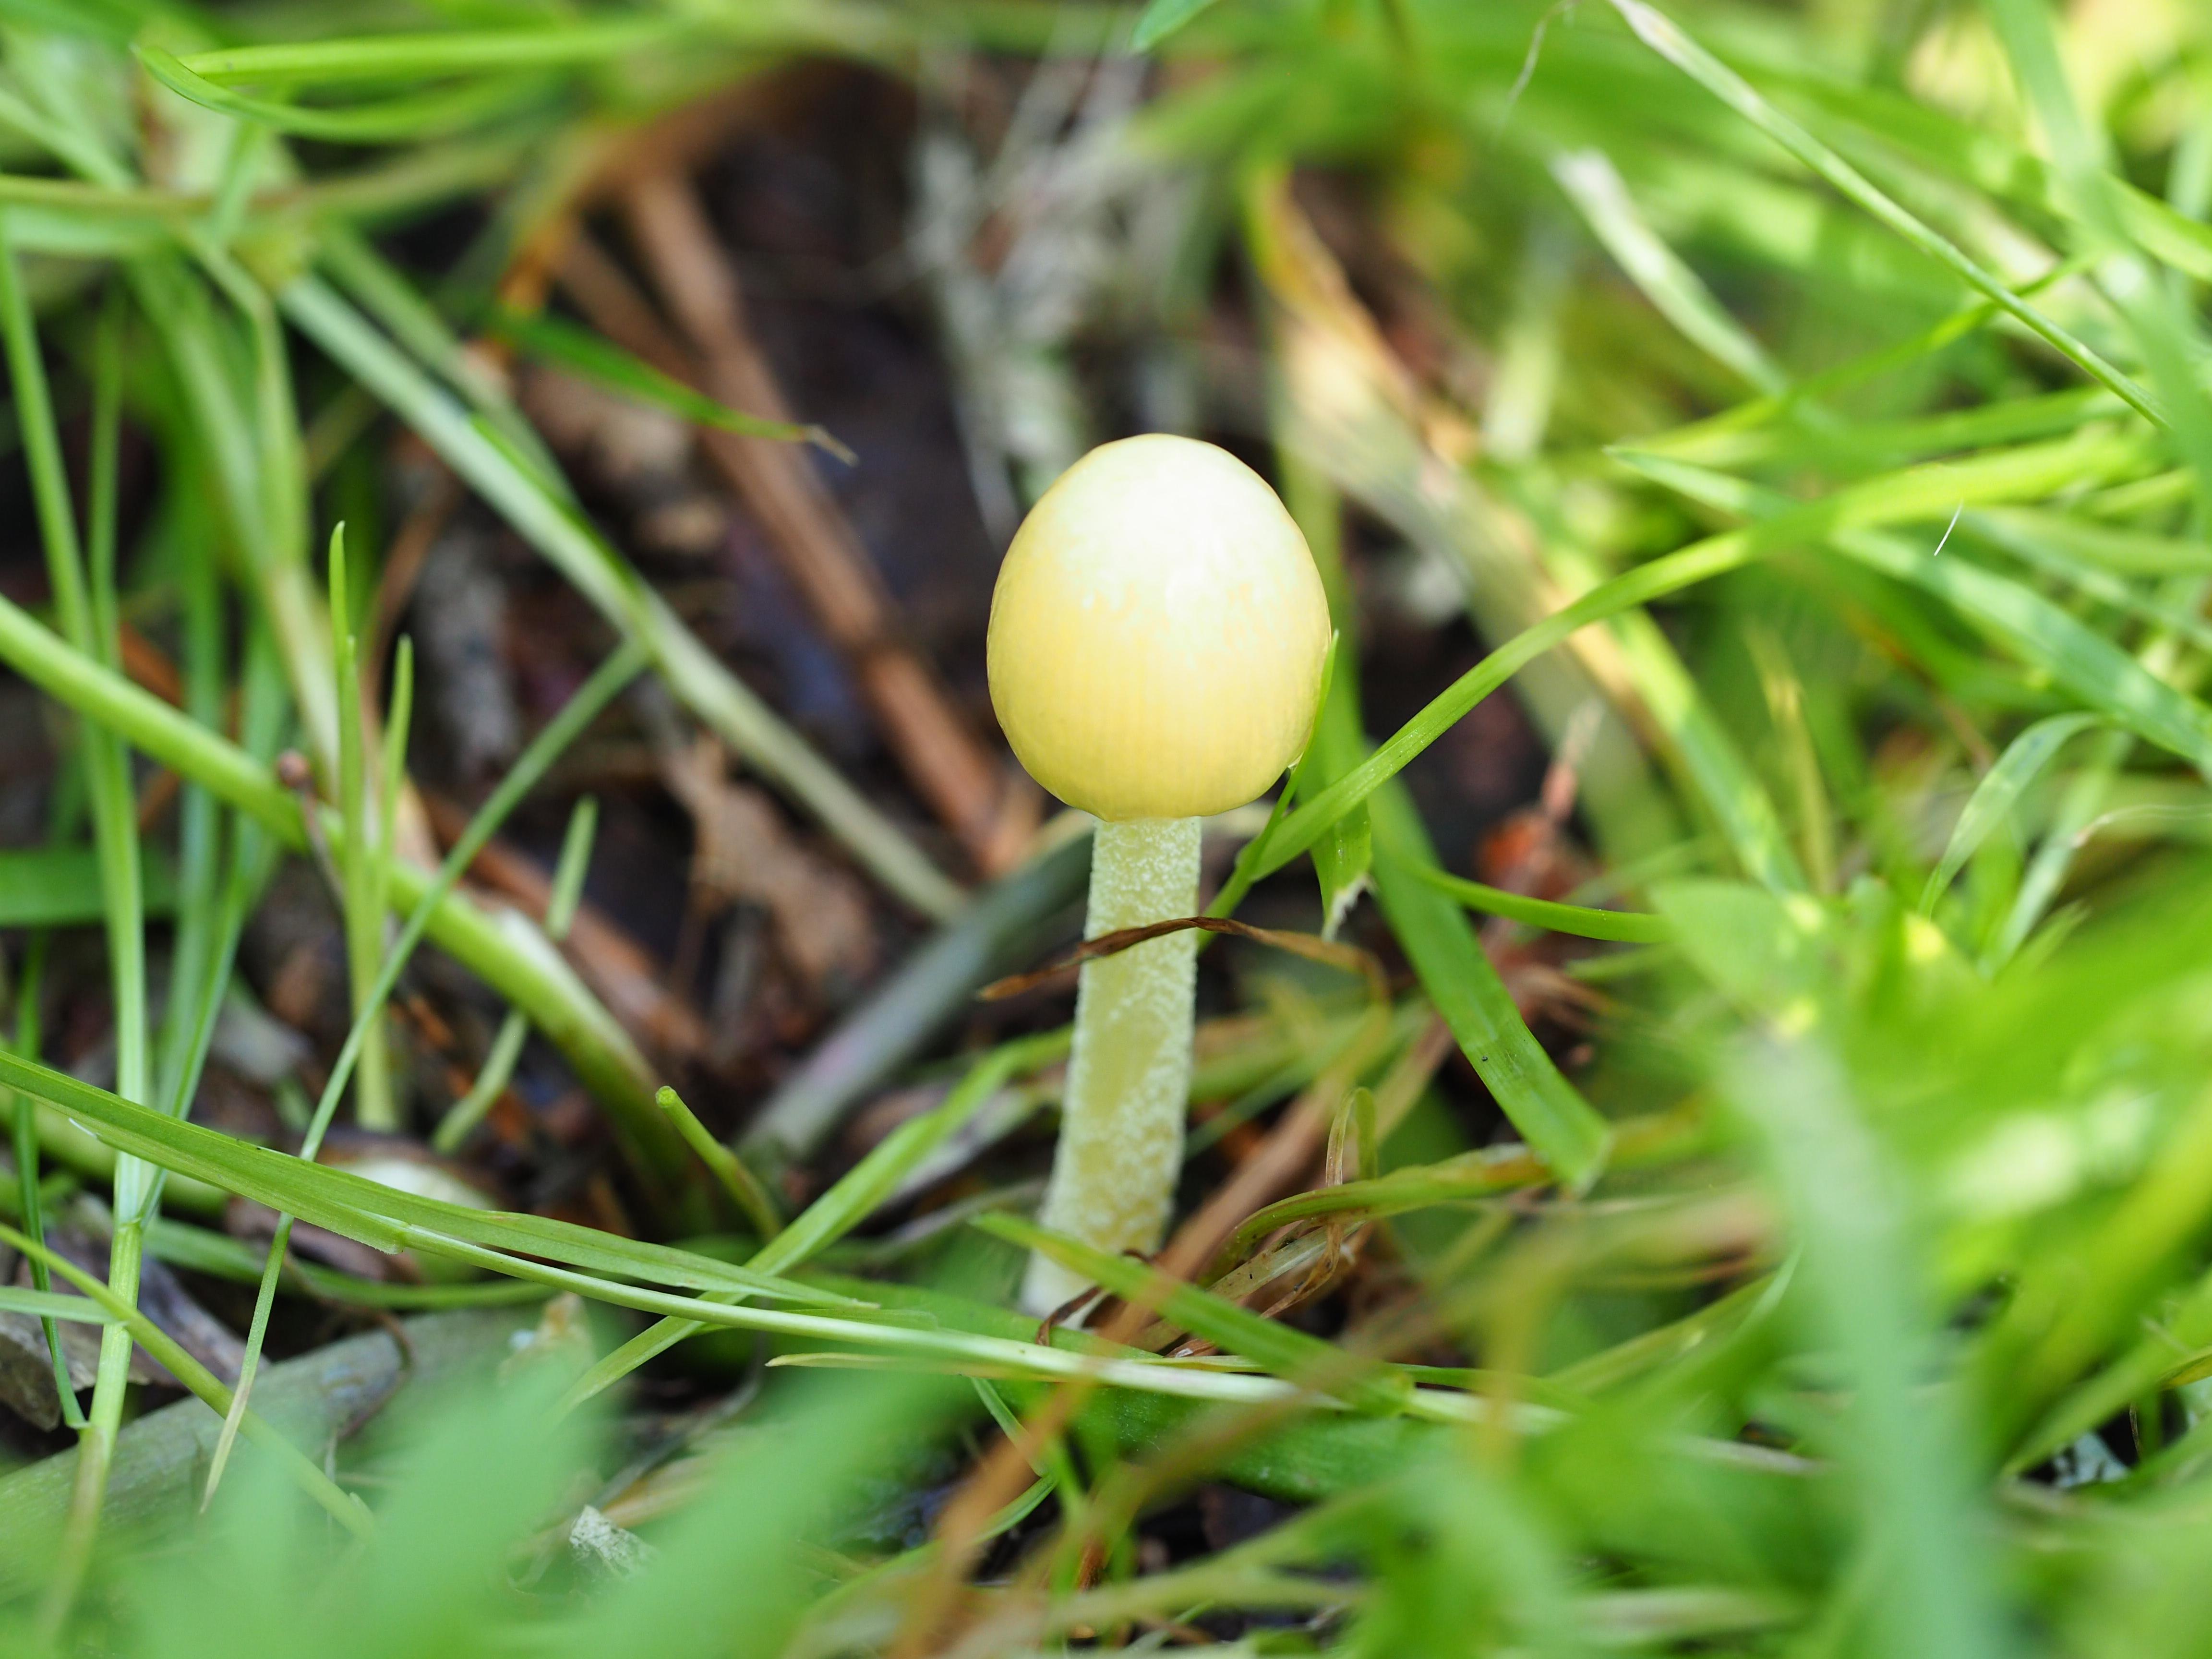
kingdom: Fungi
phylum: Basidiomycota
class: Agaricomycetes
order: Agaricales
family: Bolbitiaceae
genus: Bolbitius
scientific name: Bolbitius titubans
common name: Yellow fieldcap
